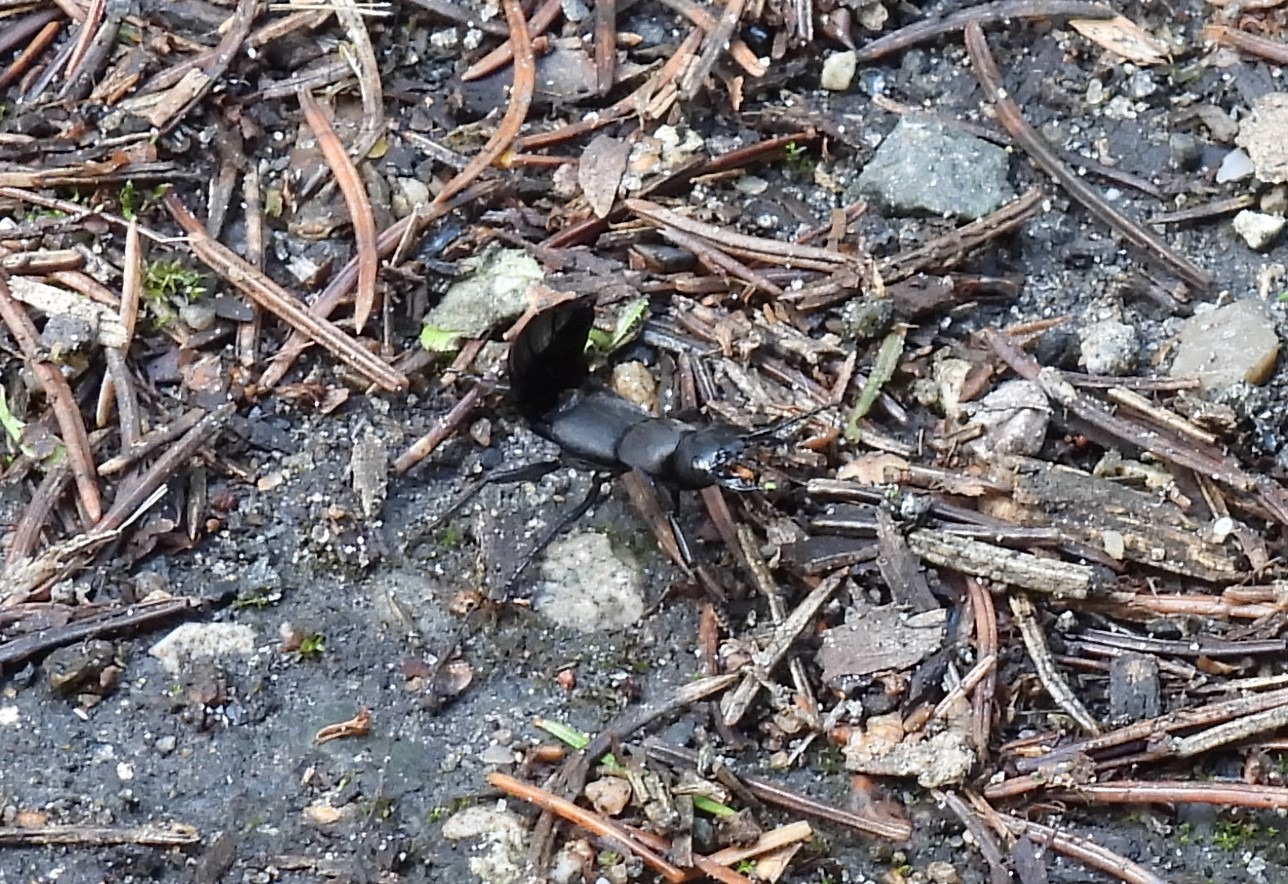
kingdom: Animalia
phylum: Arthropoda
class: Insecta
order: Coleoptera
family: Staphylinidae
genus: Ocypus
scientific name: Ocypus olens
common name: Stor rovbille
